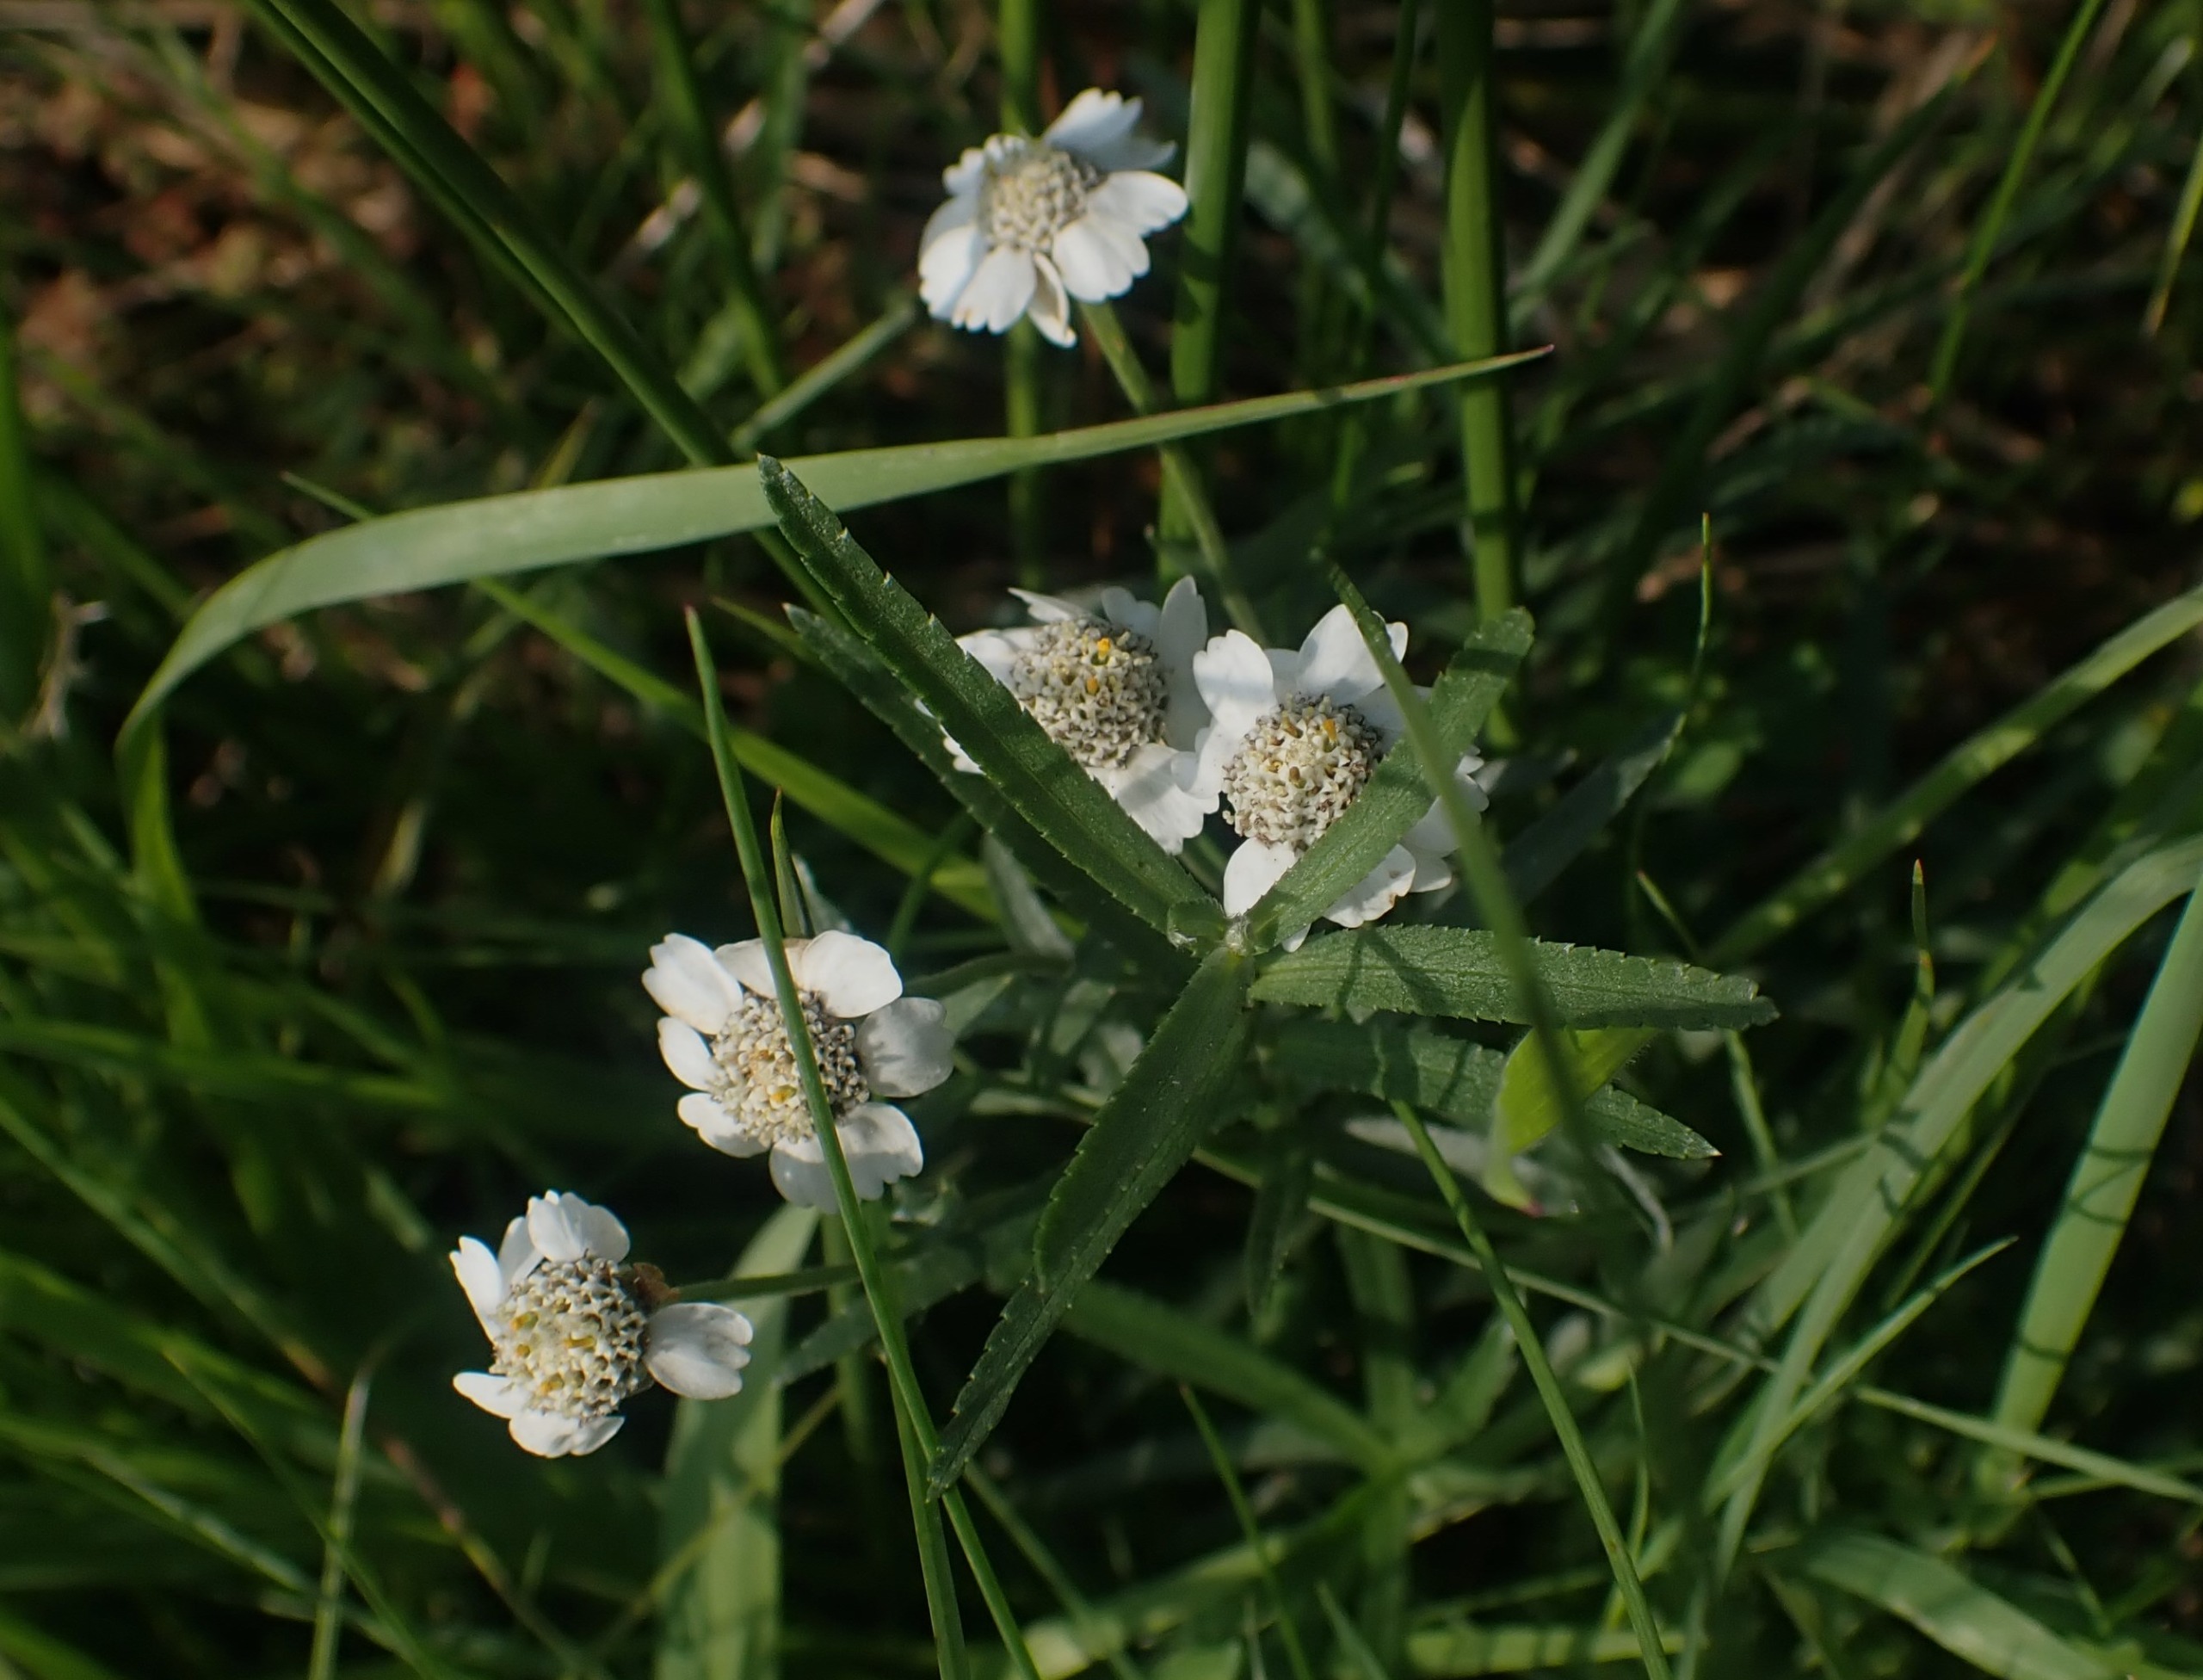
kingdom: Plantae
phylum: Tracheophyta
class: Magnoliopsida
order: Asterales
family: Asteraceae
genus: Achillea
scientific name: Achillea ptarmica
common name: Nyse-røllike
